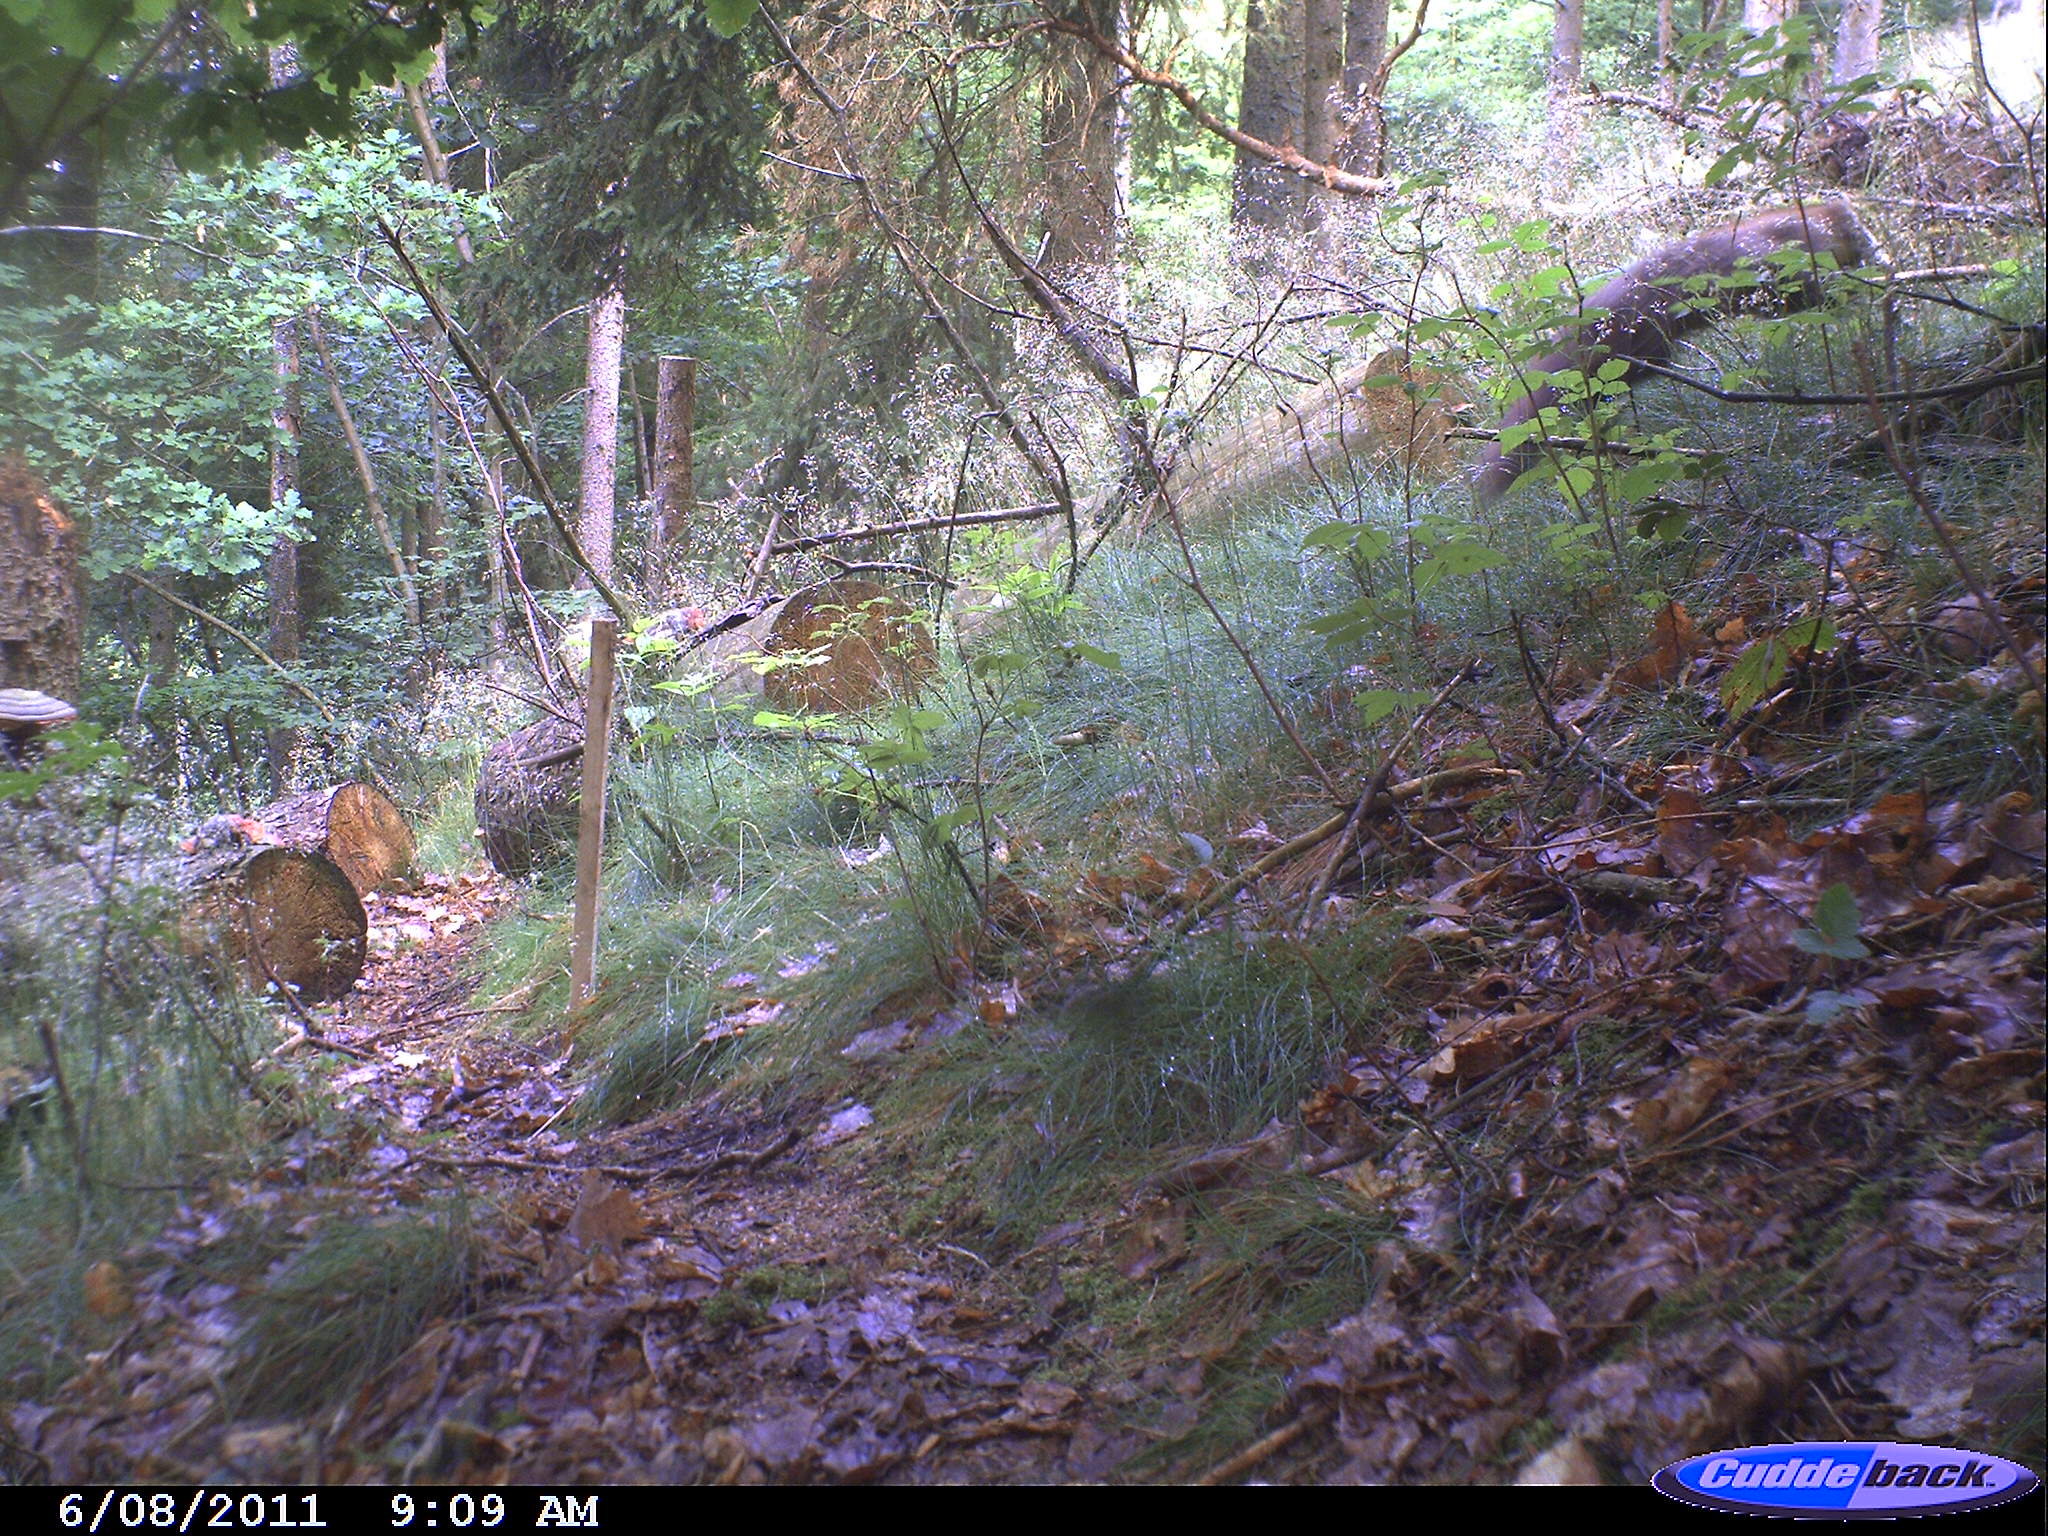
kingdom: Animalia
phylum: Chordata
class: Mammalia
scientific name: Mammalia
